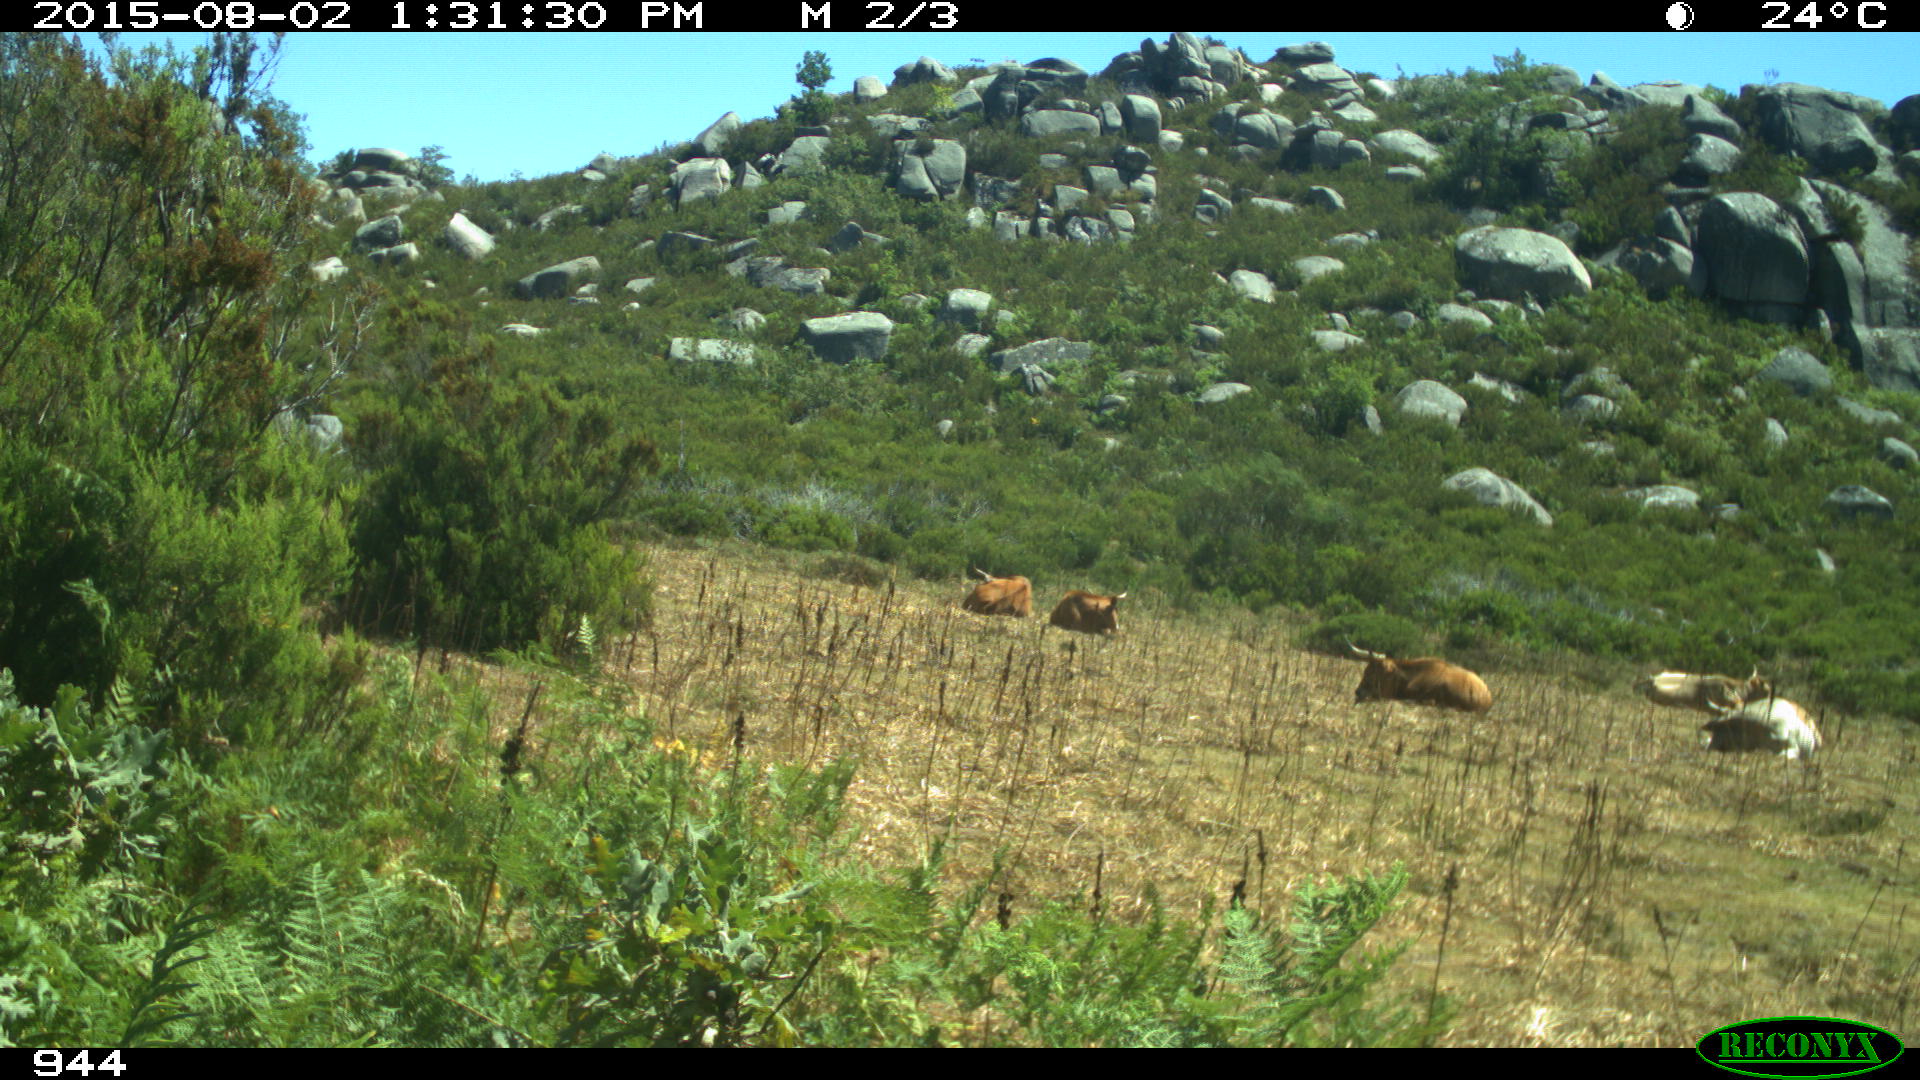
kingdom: Animalia
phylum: Chordata
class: Mammalia
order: Artiodactyla
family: Bovidae
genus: Bos
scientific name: Bos taurus
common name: Domesticated cattle
